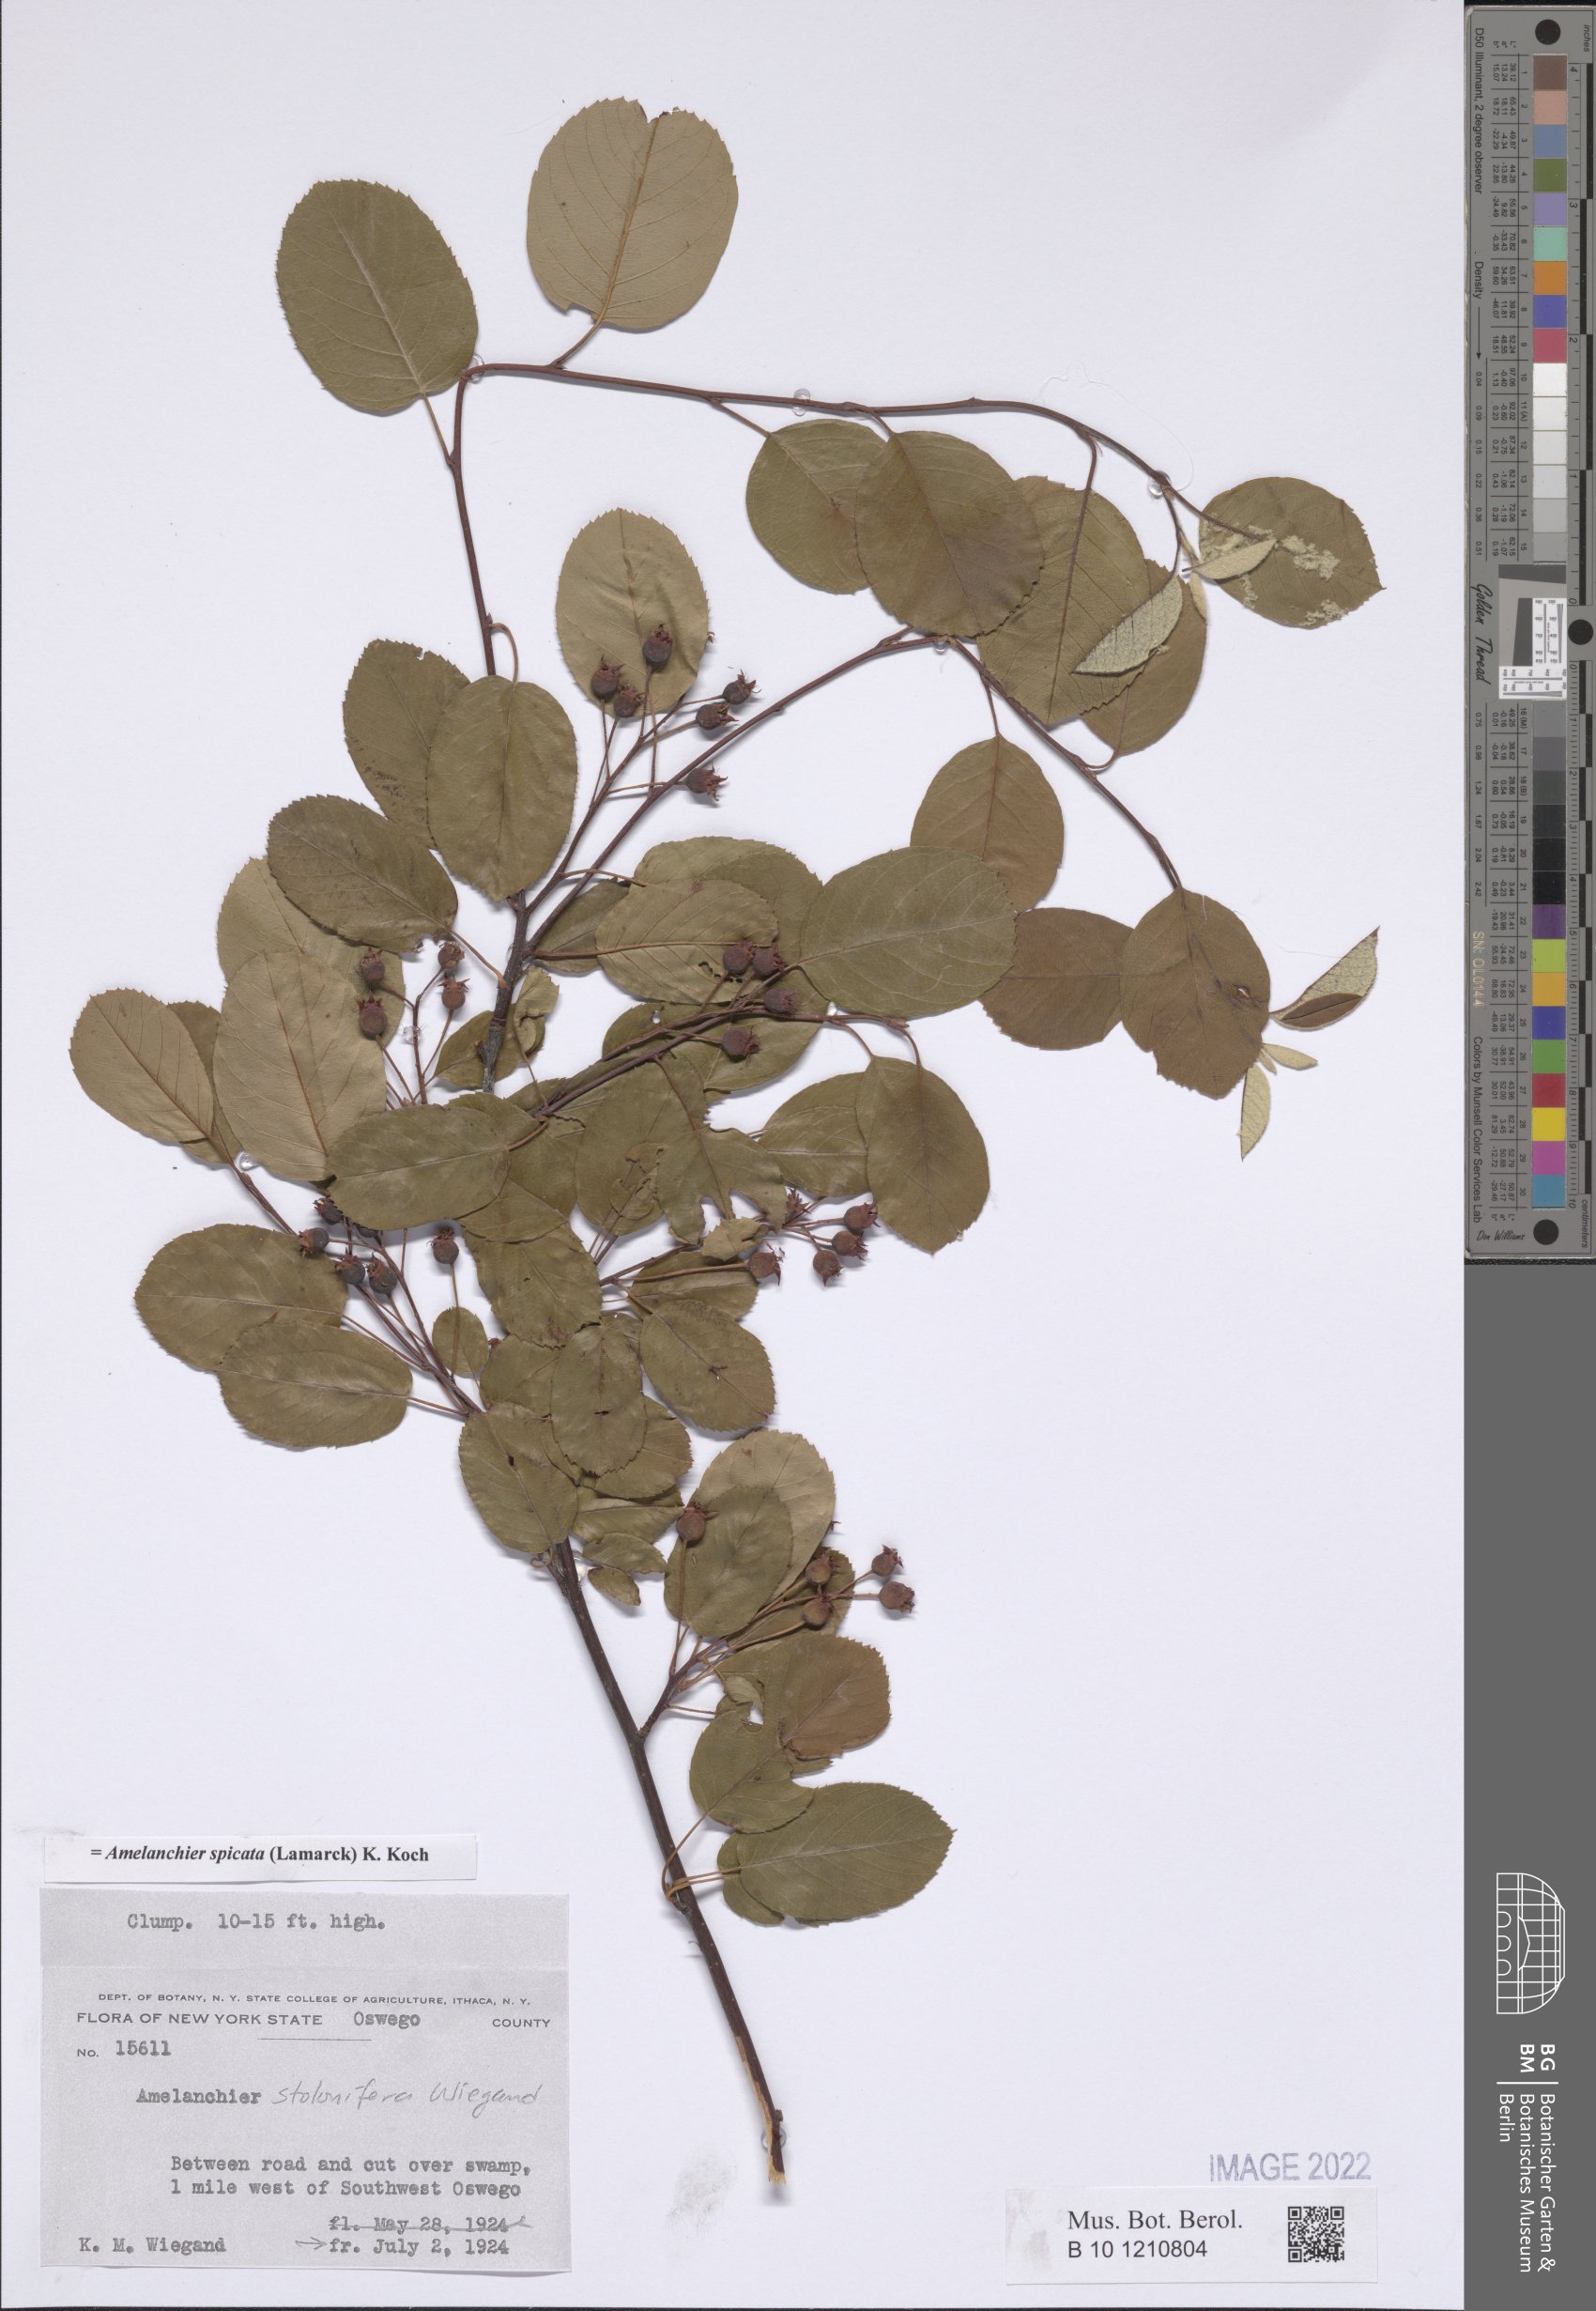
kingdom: Plantae
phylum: Tracheophyta
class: Magnoliopsida
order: Rosales
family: Rosaceae
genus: Amelanchier
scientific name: Amelanchier humilis
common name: Low juneberry
